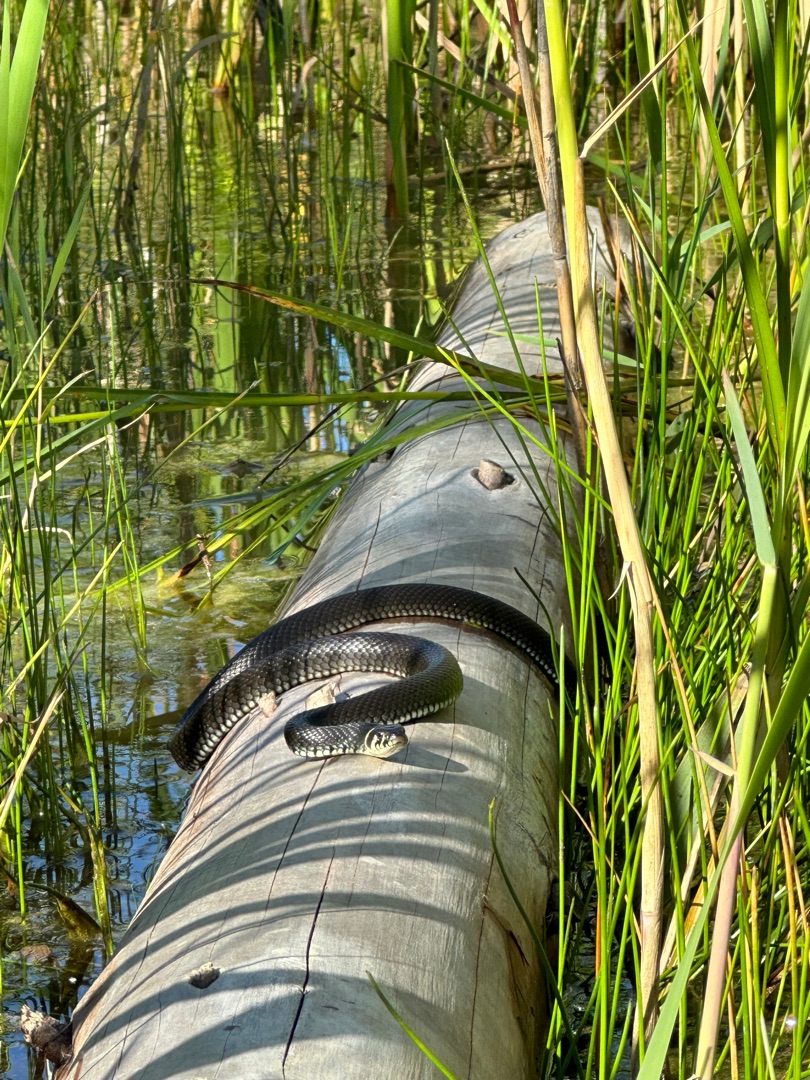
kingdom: Animalia
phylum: Chordata
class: Squamata
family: Colubridae
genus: Natrix
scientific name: Natrix natrix
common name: Snog
